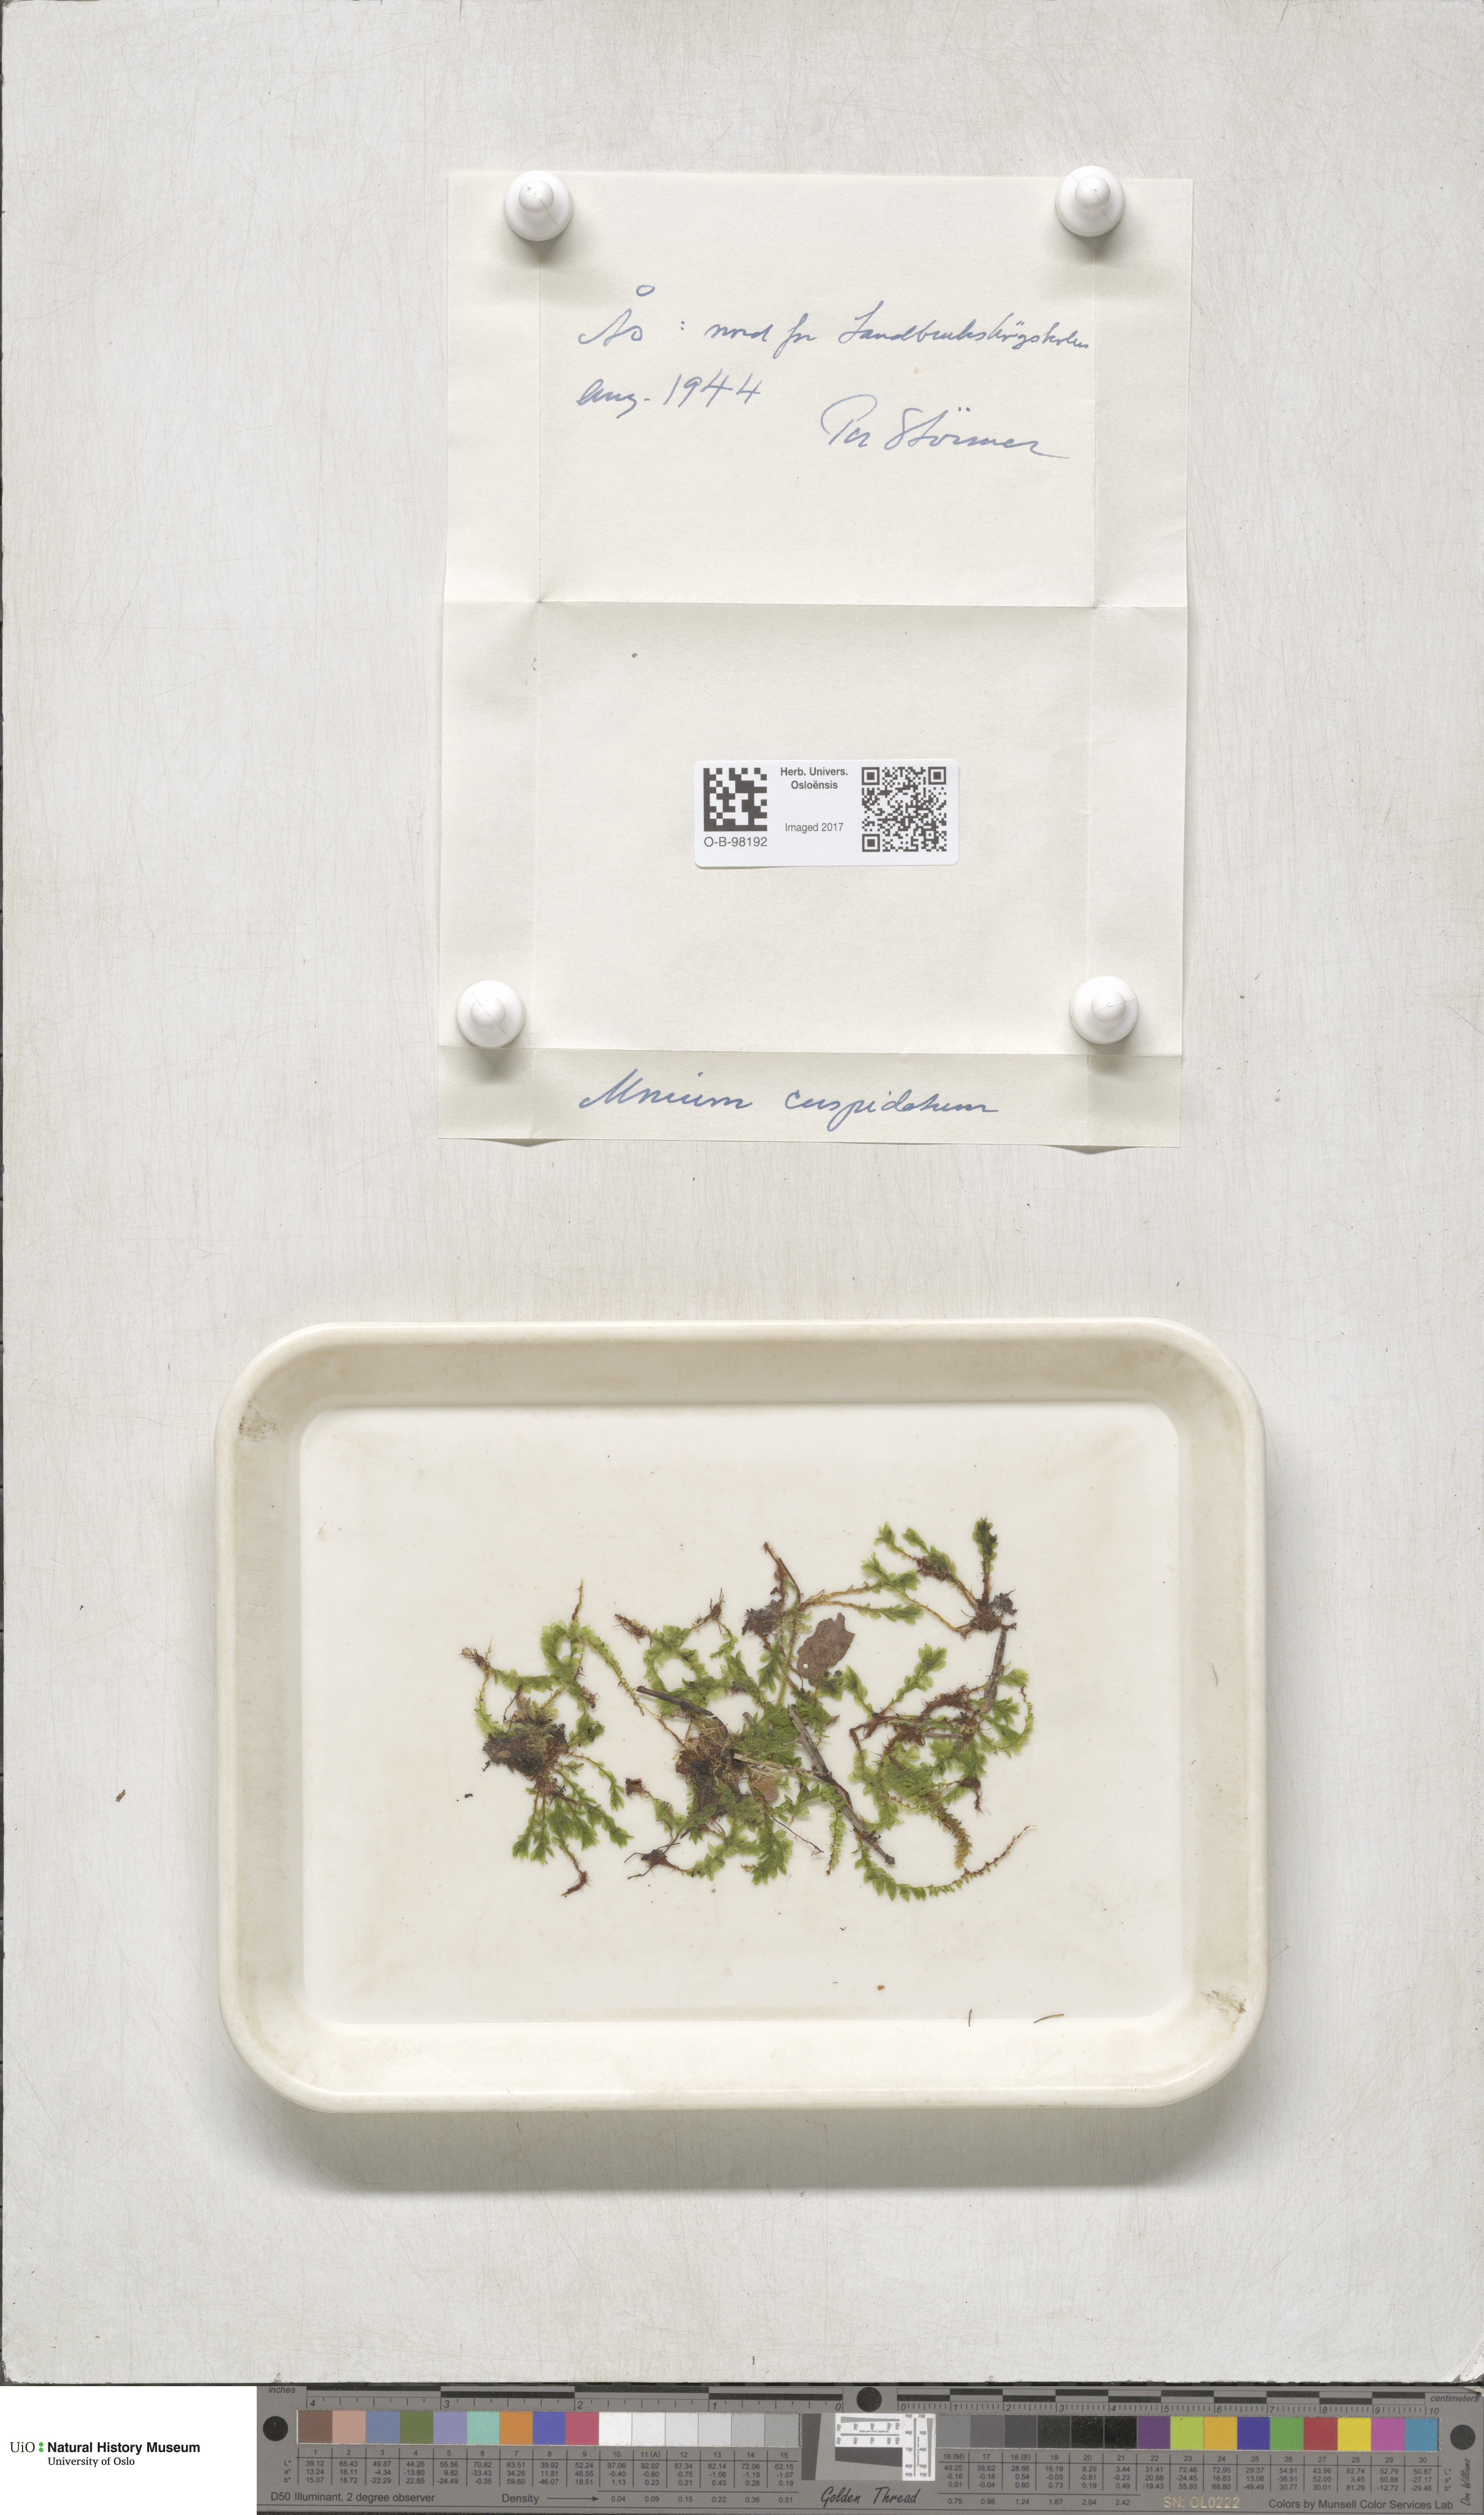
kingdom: Plantae
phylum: Bryophyta
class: Bryopsida
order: Bryales
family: Mniaceae
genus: Plagiomnium
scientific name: Plagiomnium cuspidatum
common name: Woodsy leafy moss
